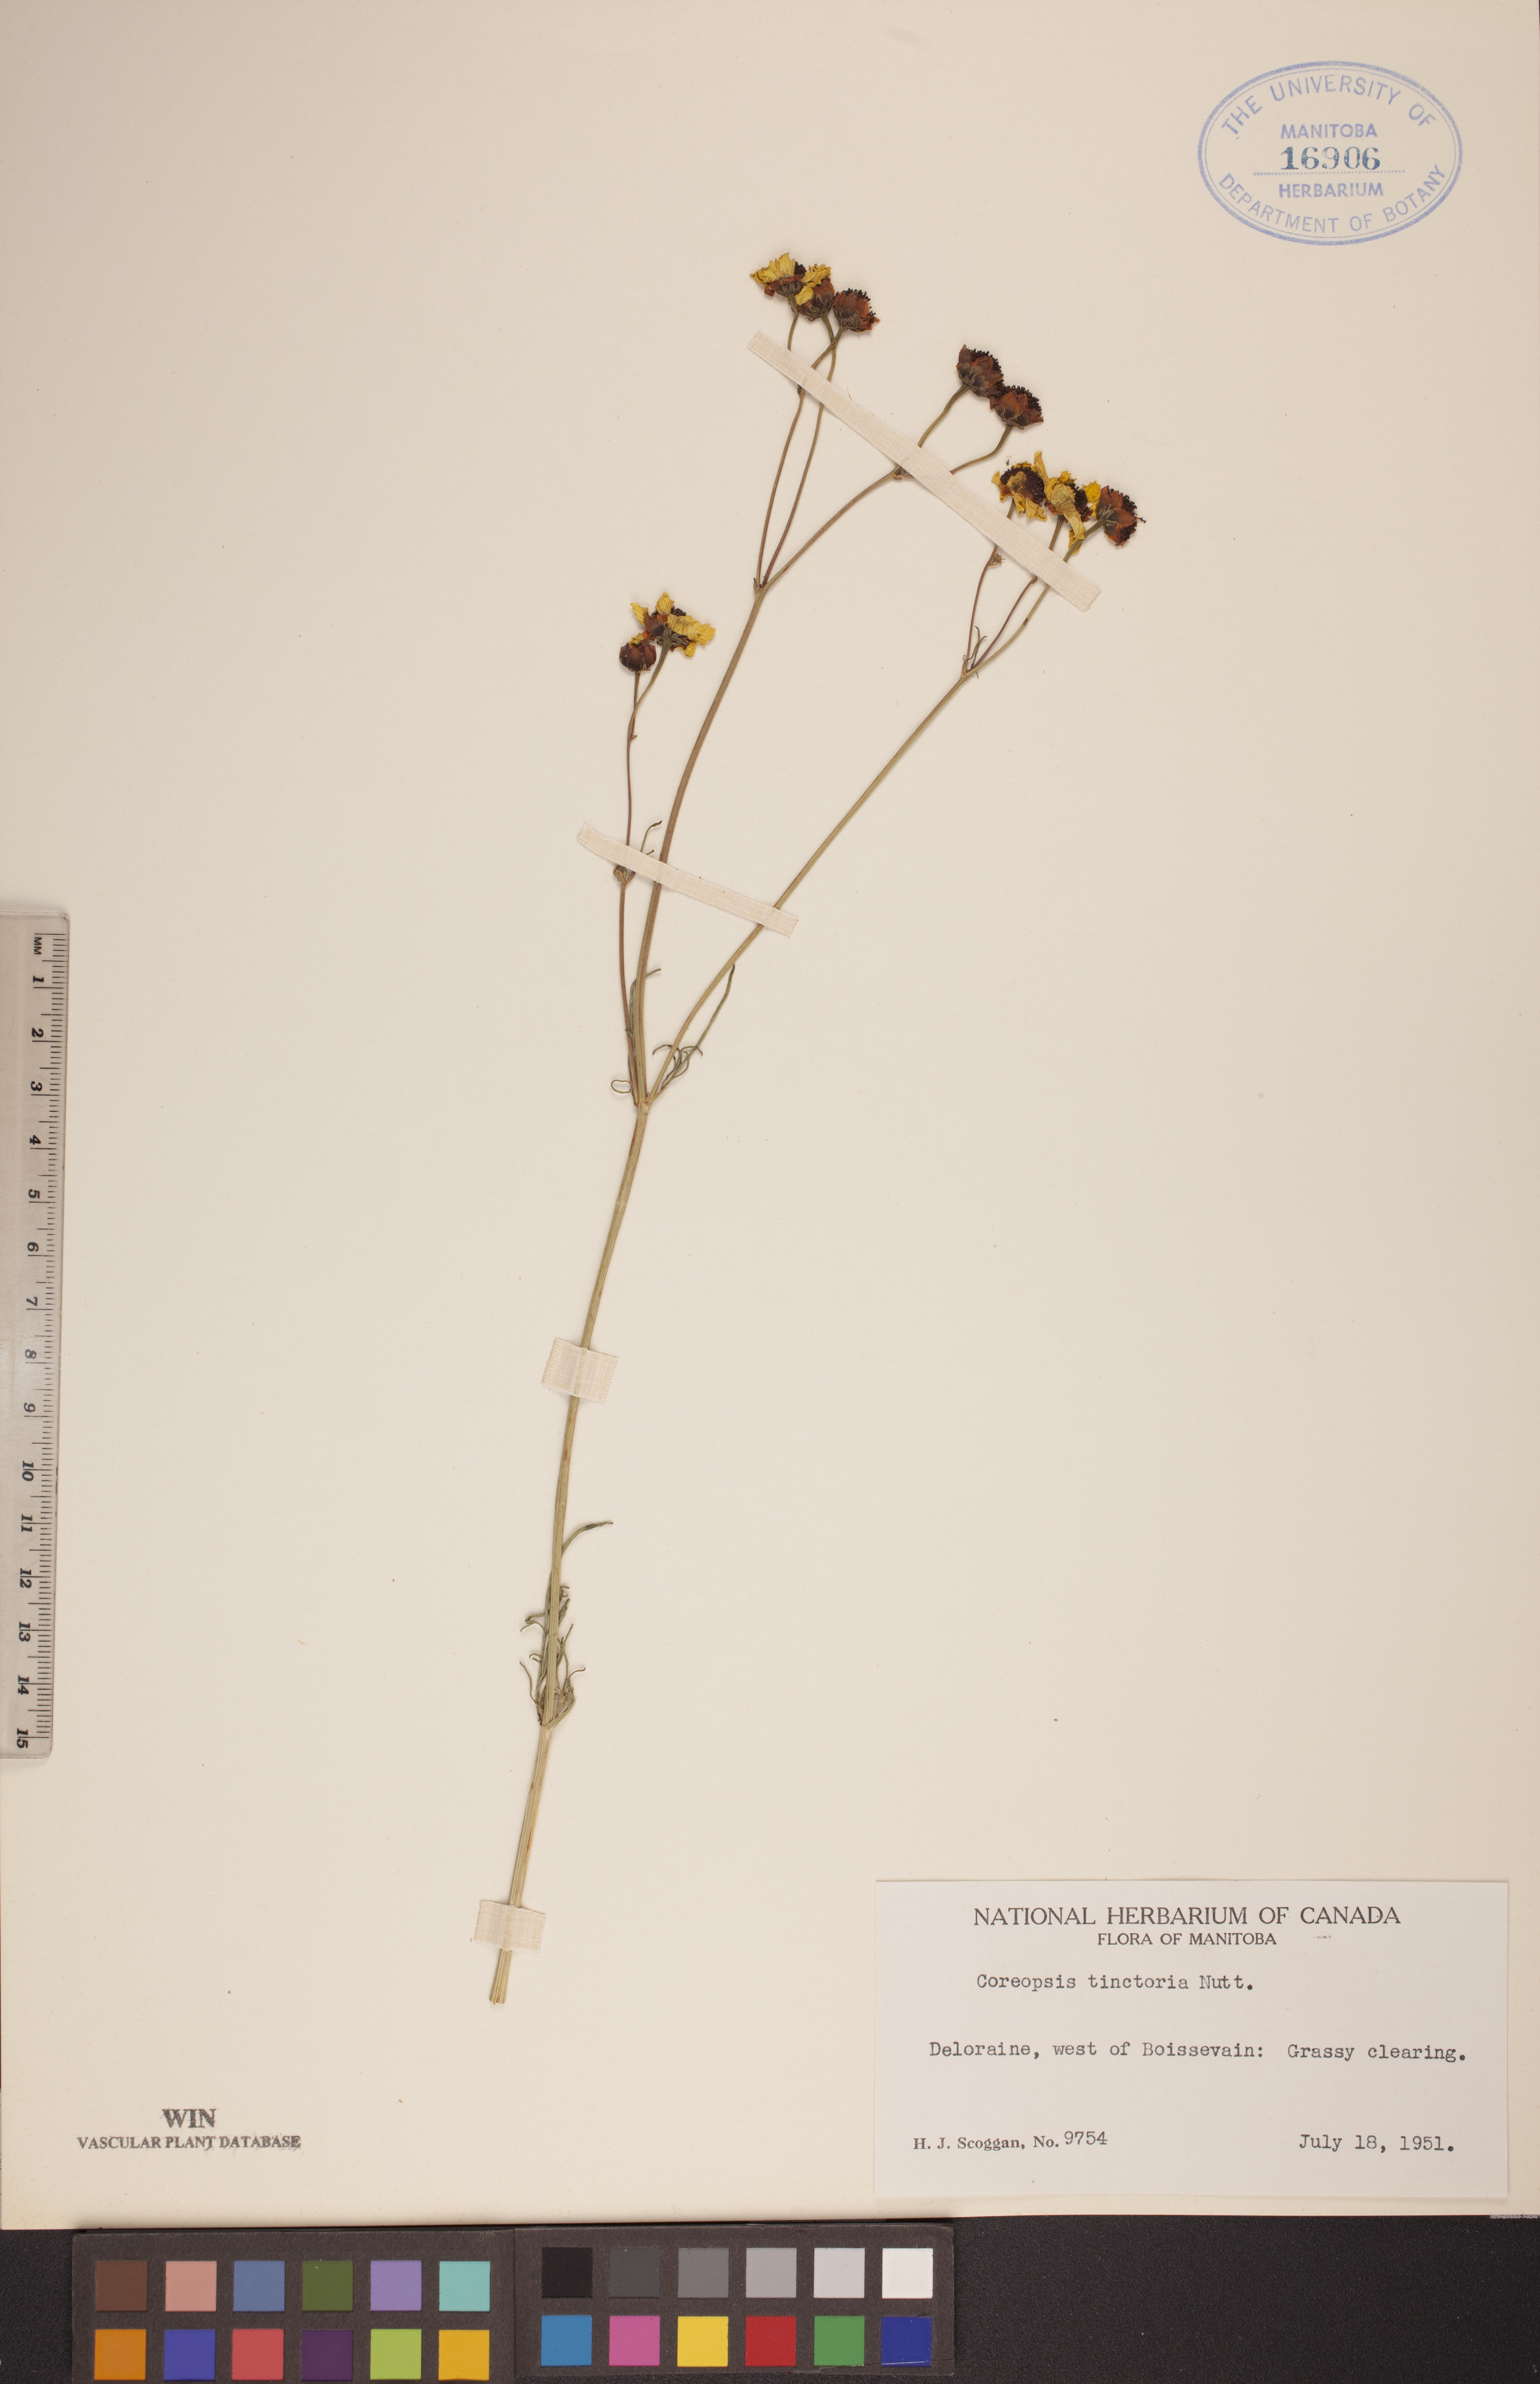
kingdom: Plantae
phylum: Tracheophyta
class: Magnoliopsida
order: Asterales
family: Asteraceae
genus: Coreopsis
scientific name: Coreopsis tinctoria
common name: Garden tickseed
